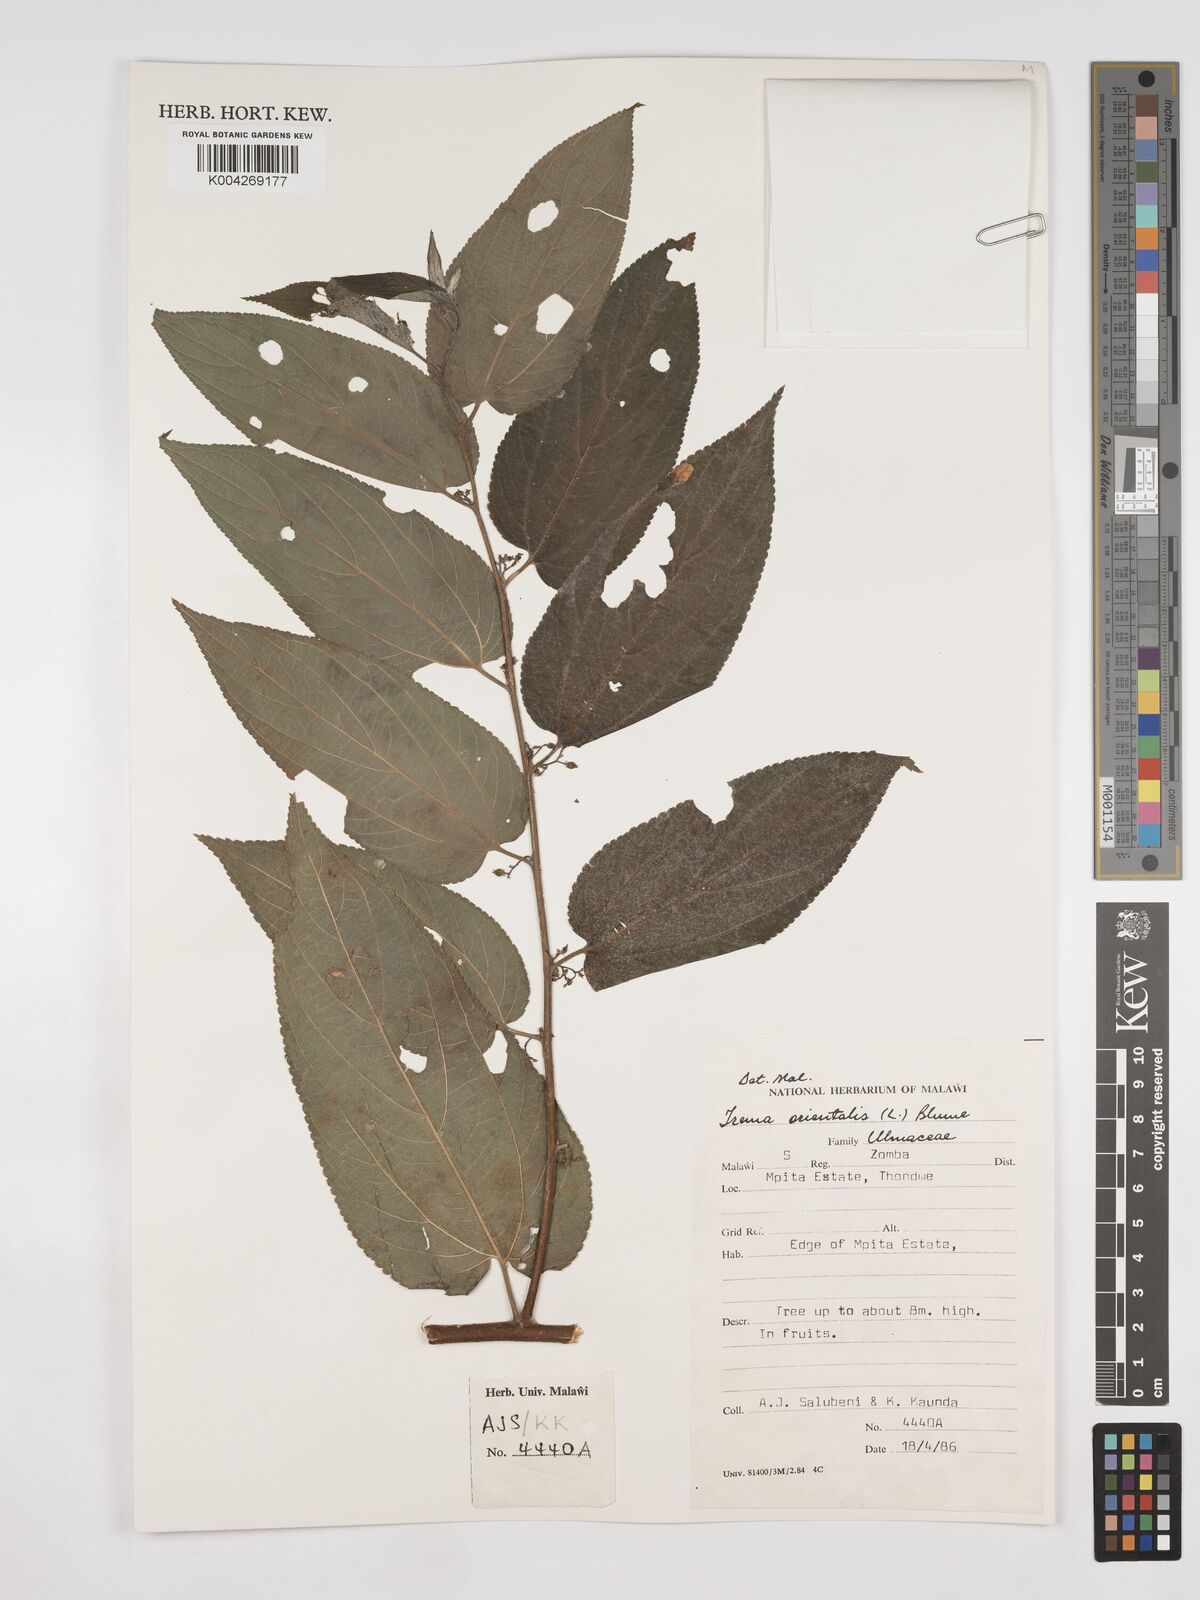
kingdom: Plantae
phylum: Tracheophyta
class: Magnoliopsida
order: Rosales
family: Cannabaceae
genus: Trema
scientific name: Trema orientale
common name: Indian charcoal tree
